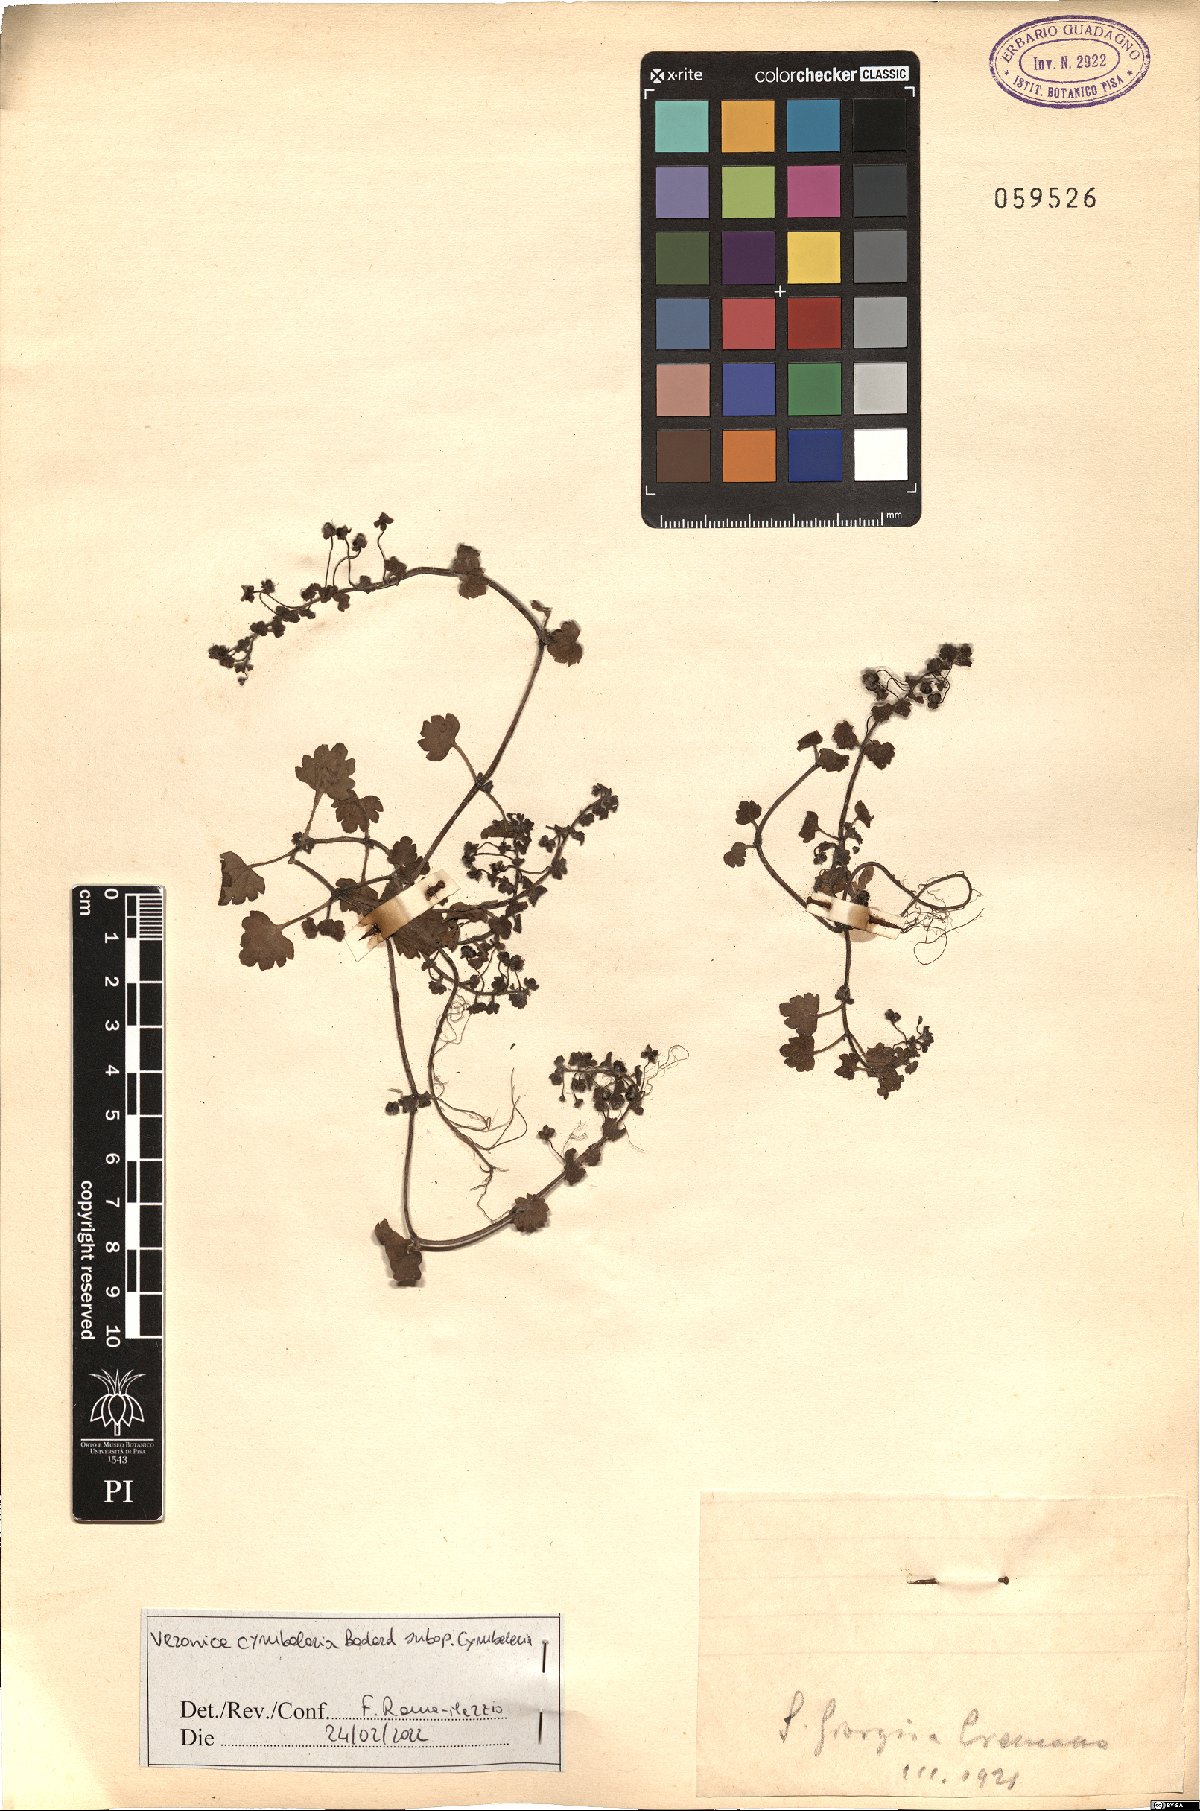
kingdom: Plantae
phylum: Tracheophyta
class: Magnoliopsida
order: Lamiales
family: Plantaginaceae
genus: Veronica
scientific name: Veronica cymbalaria
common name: Pale speedwell
